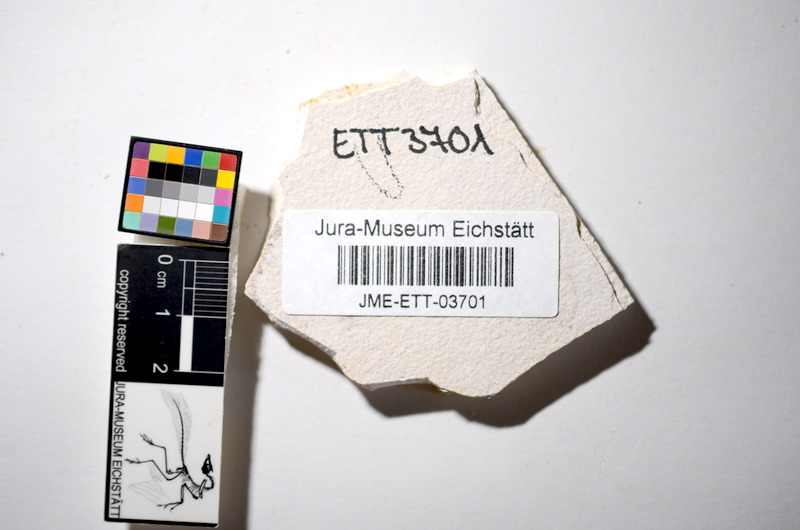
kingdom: Animalia
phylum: Chordata
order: Salmoniformes
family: Orthogonikleithridae
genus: Orthogonikleithrus
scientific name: Orthogonikleithrus hoelli
